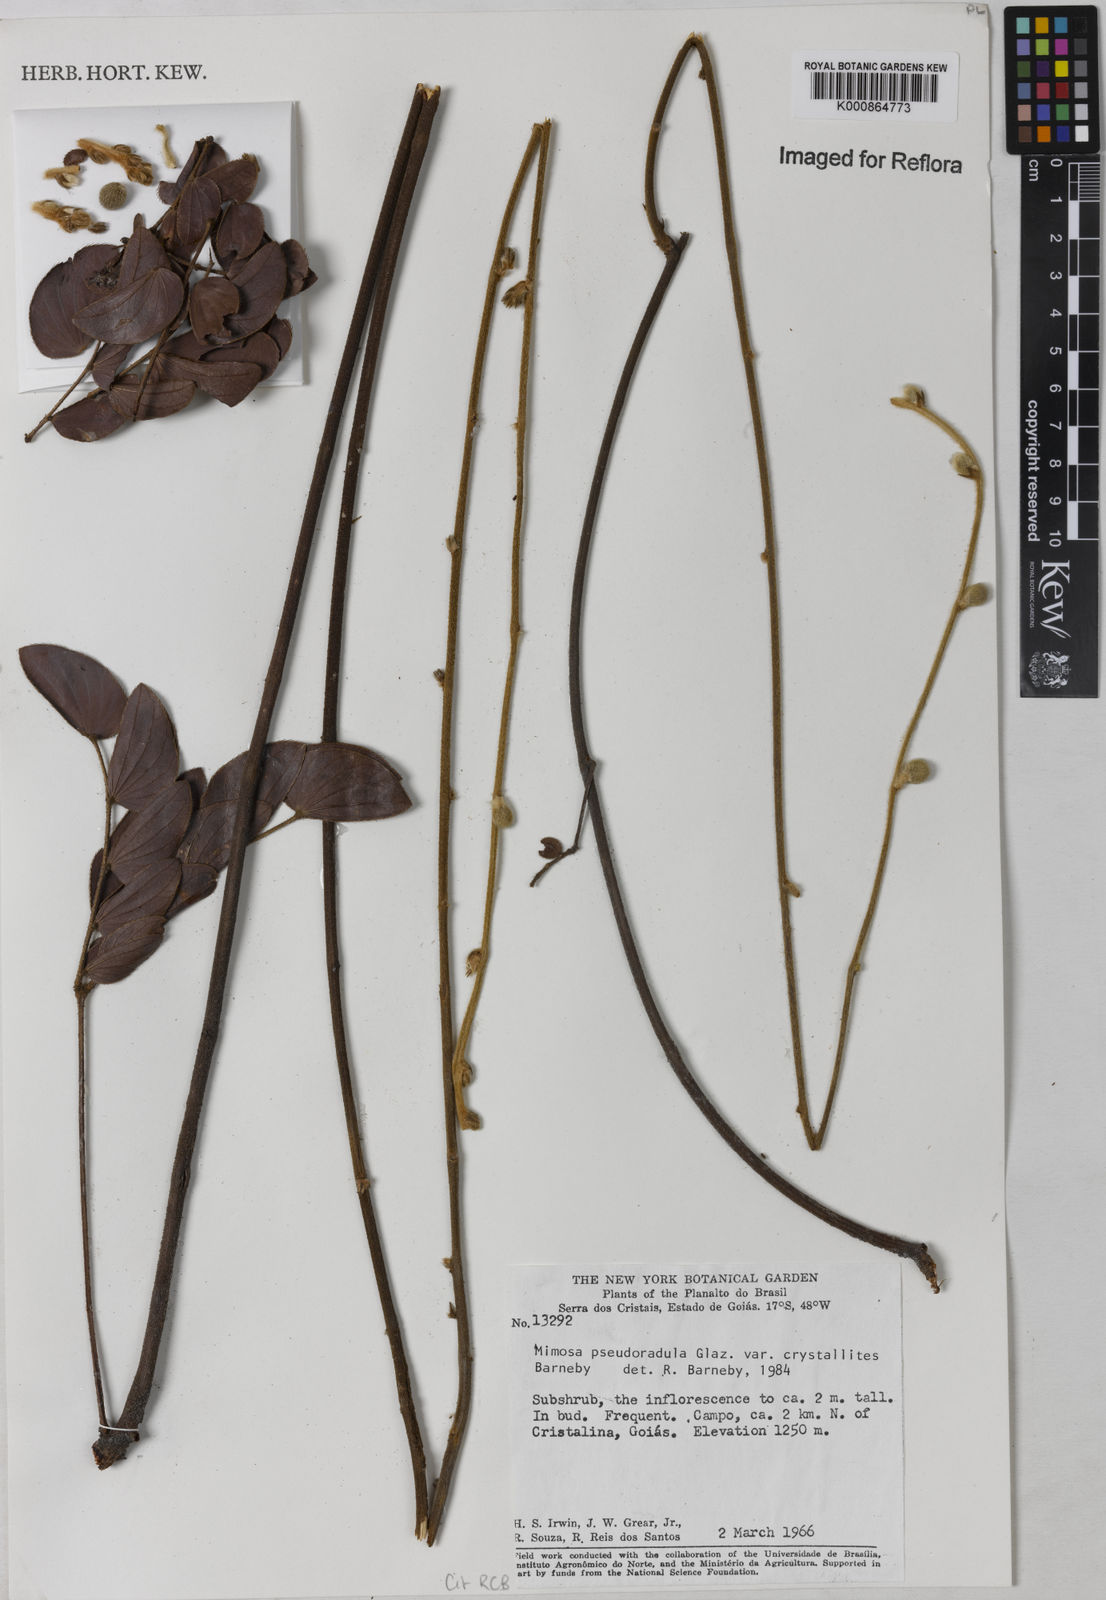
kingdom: Plantae
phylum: Tracheophyta
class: Magnoliopsida
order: Fabales
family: Fabaceae
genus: Mimosa
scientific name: Mimosa pseudoradula
